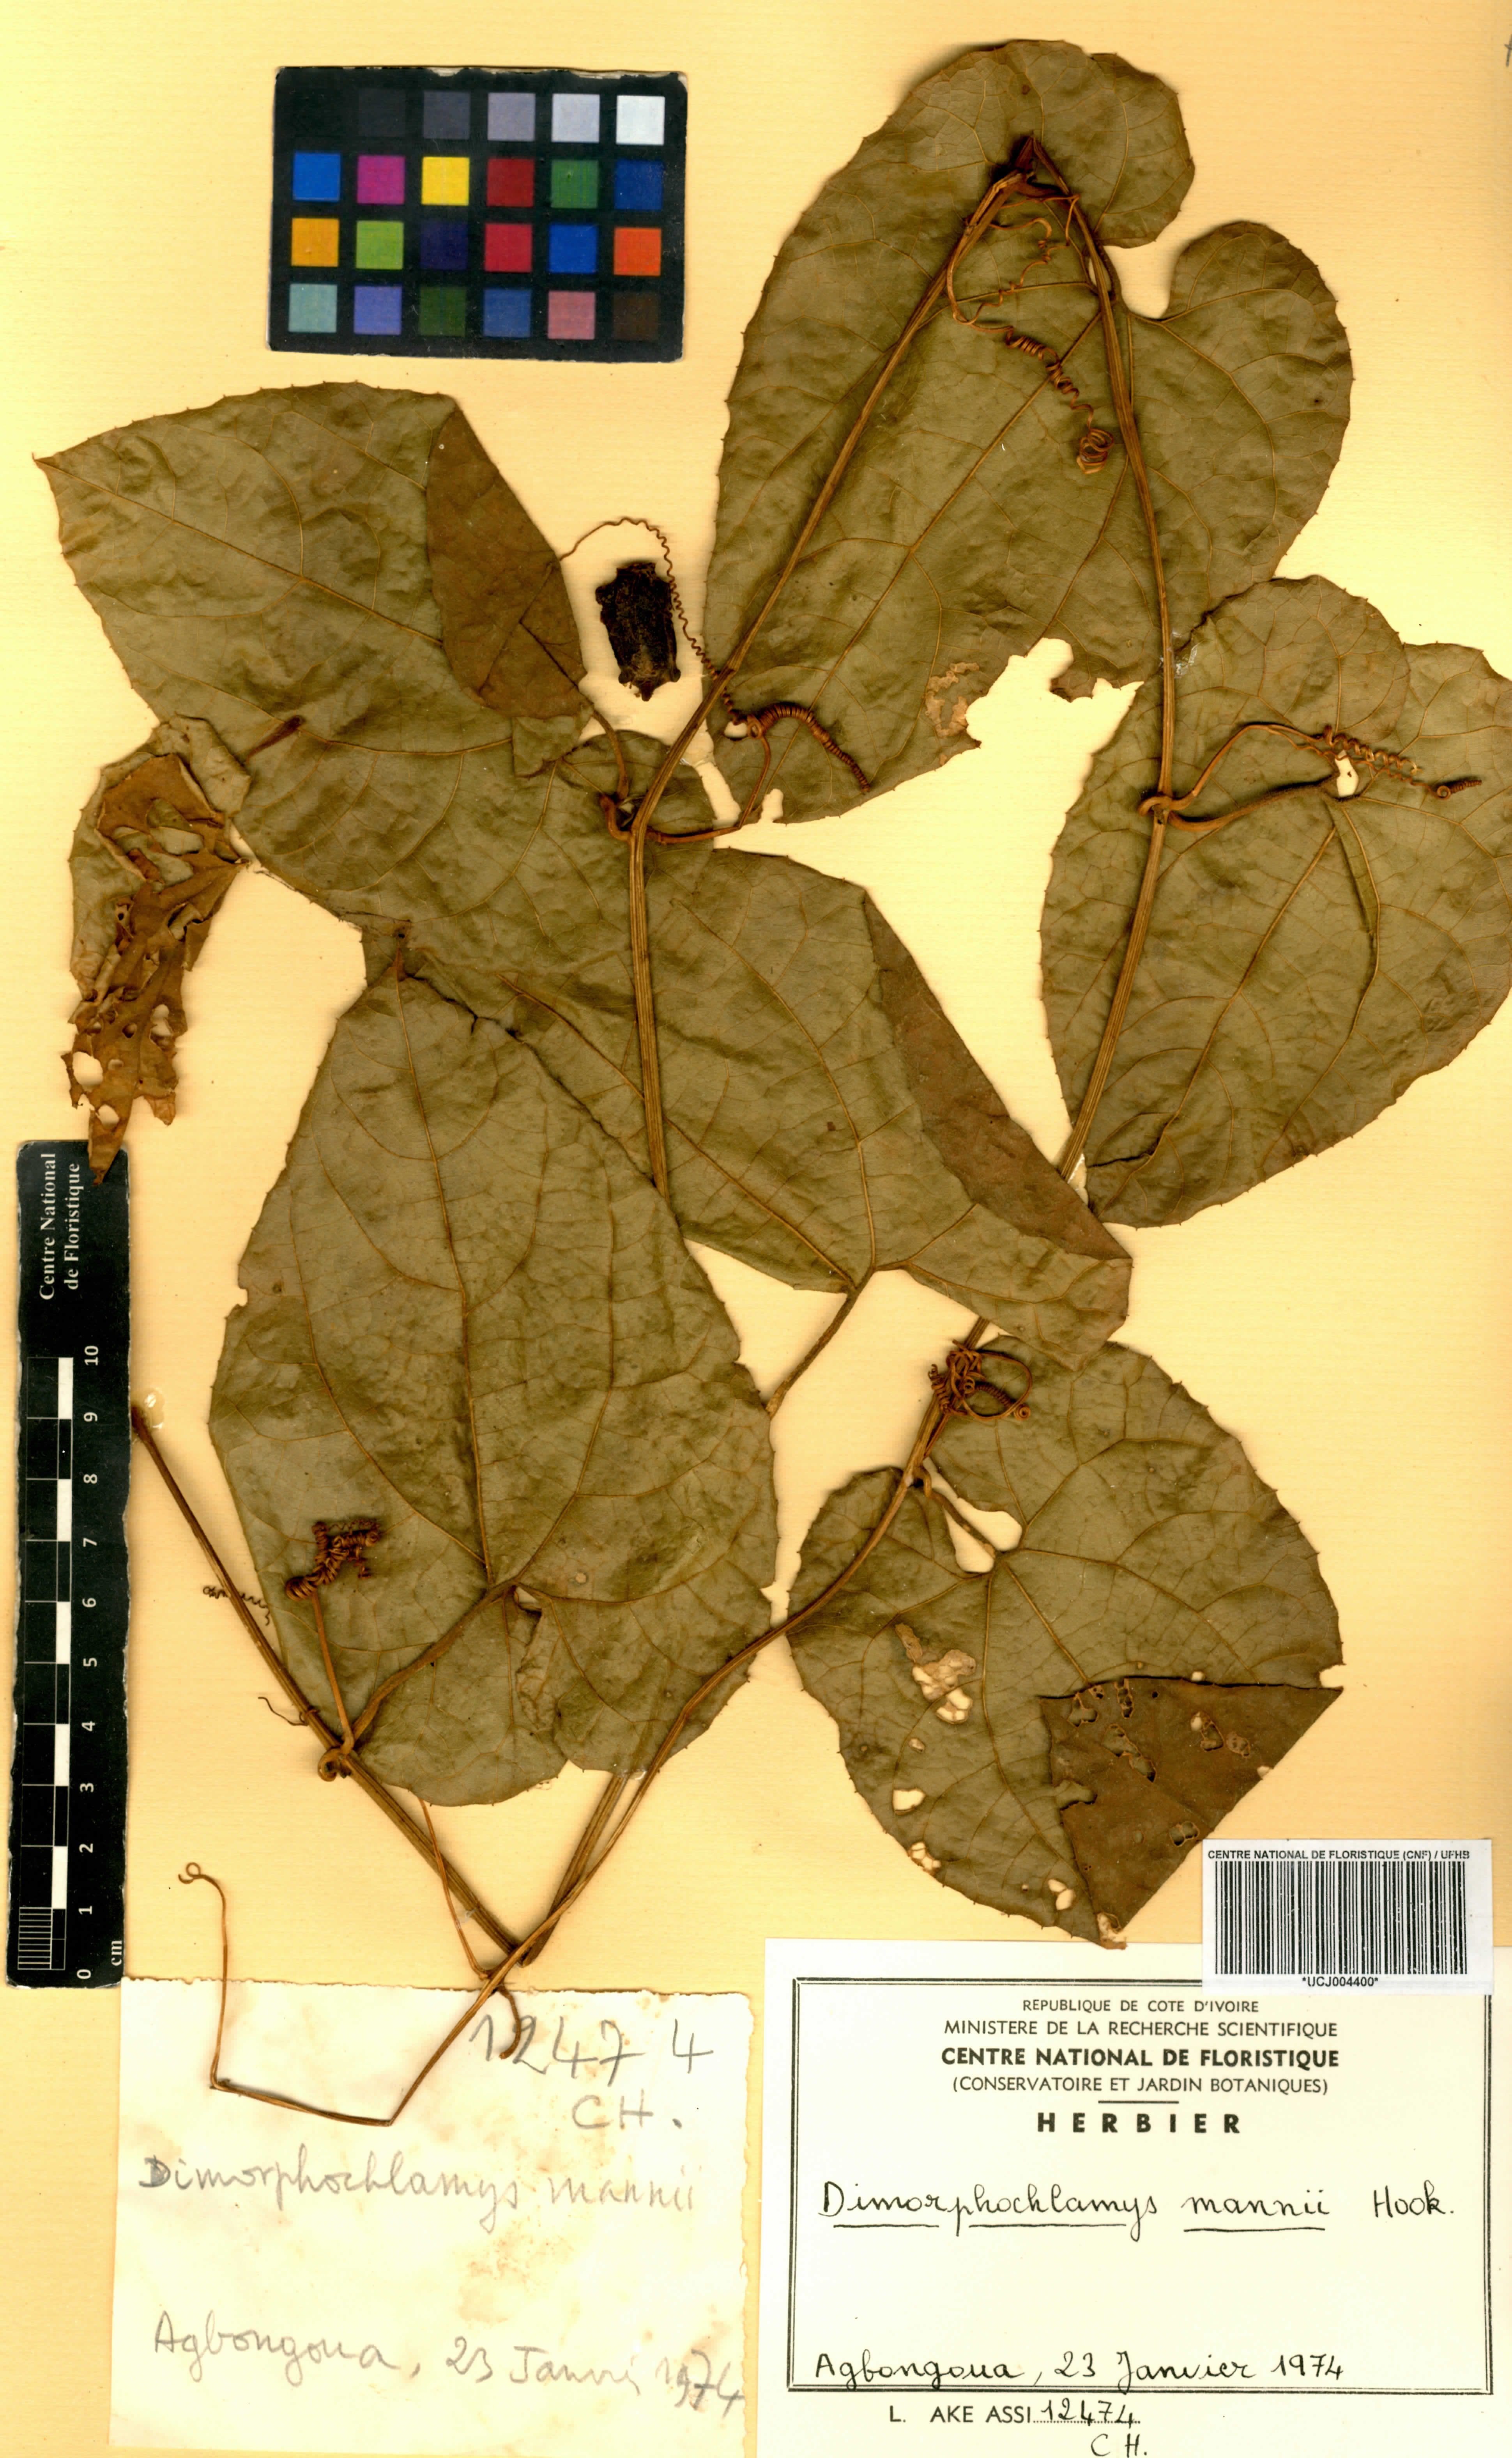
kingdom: Plantae
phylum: Tracheophyta
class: Magnoliopsida
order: Cucurbitales
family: Cucurbitaceae
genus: Momordica
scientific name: Momordica cabrae
